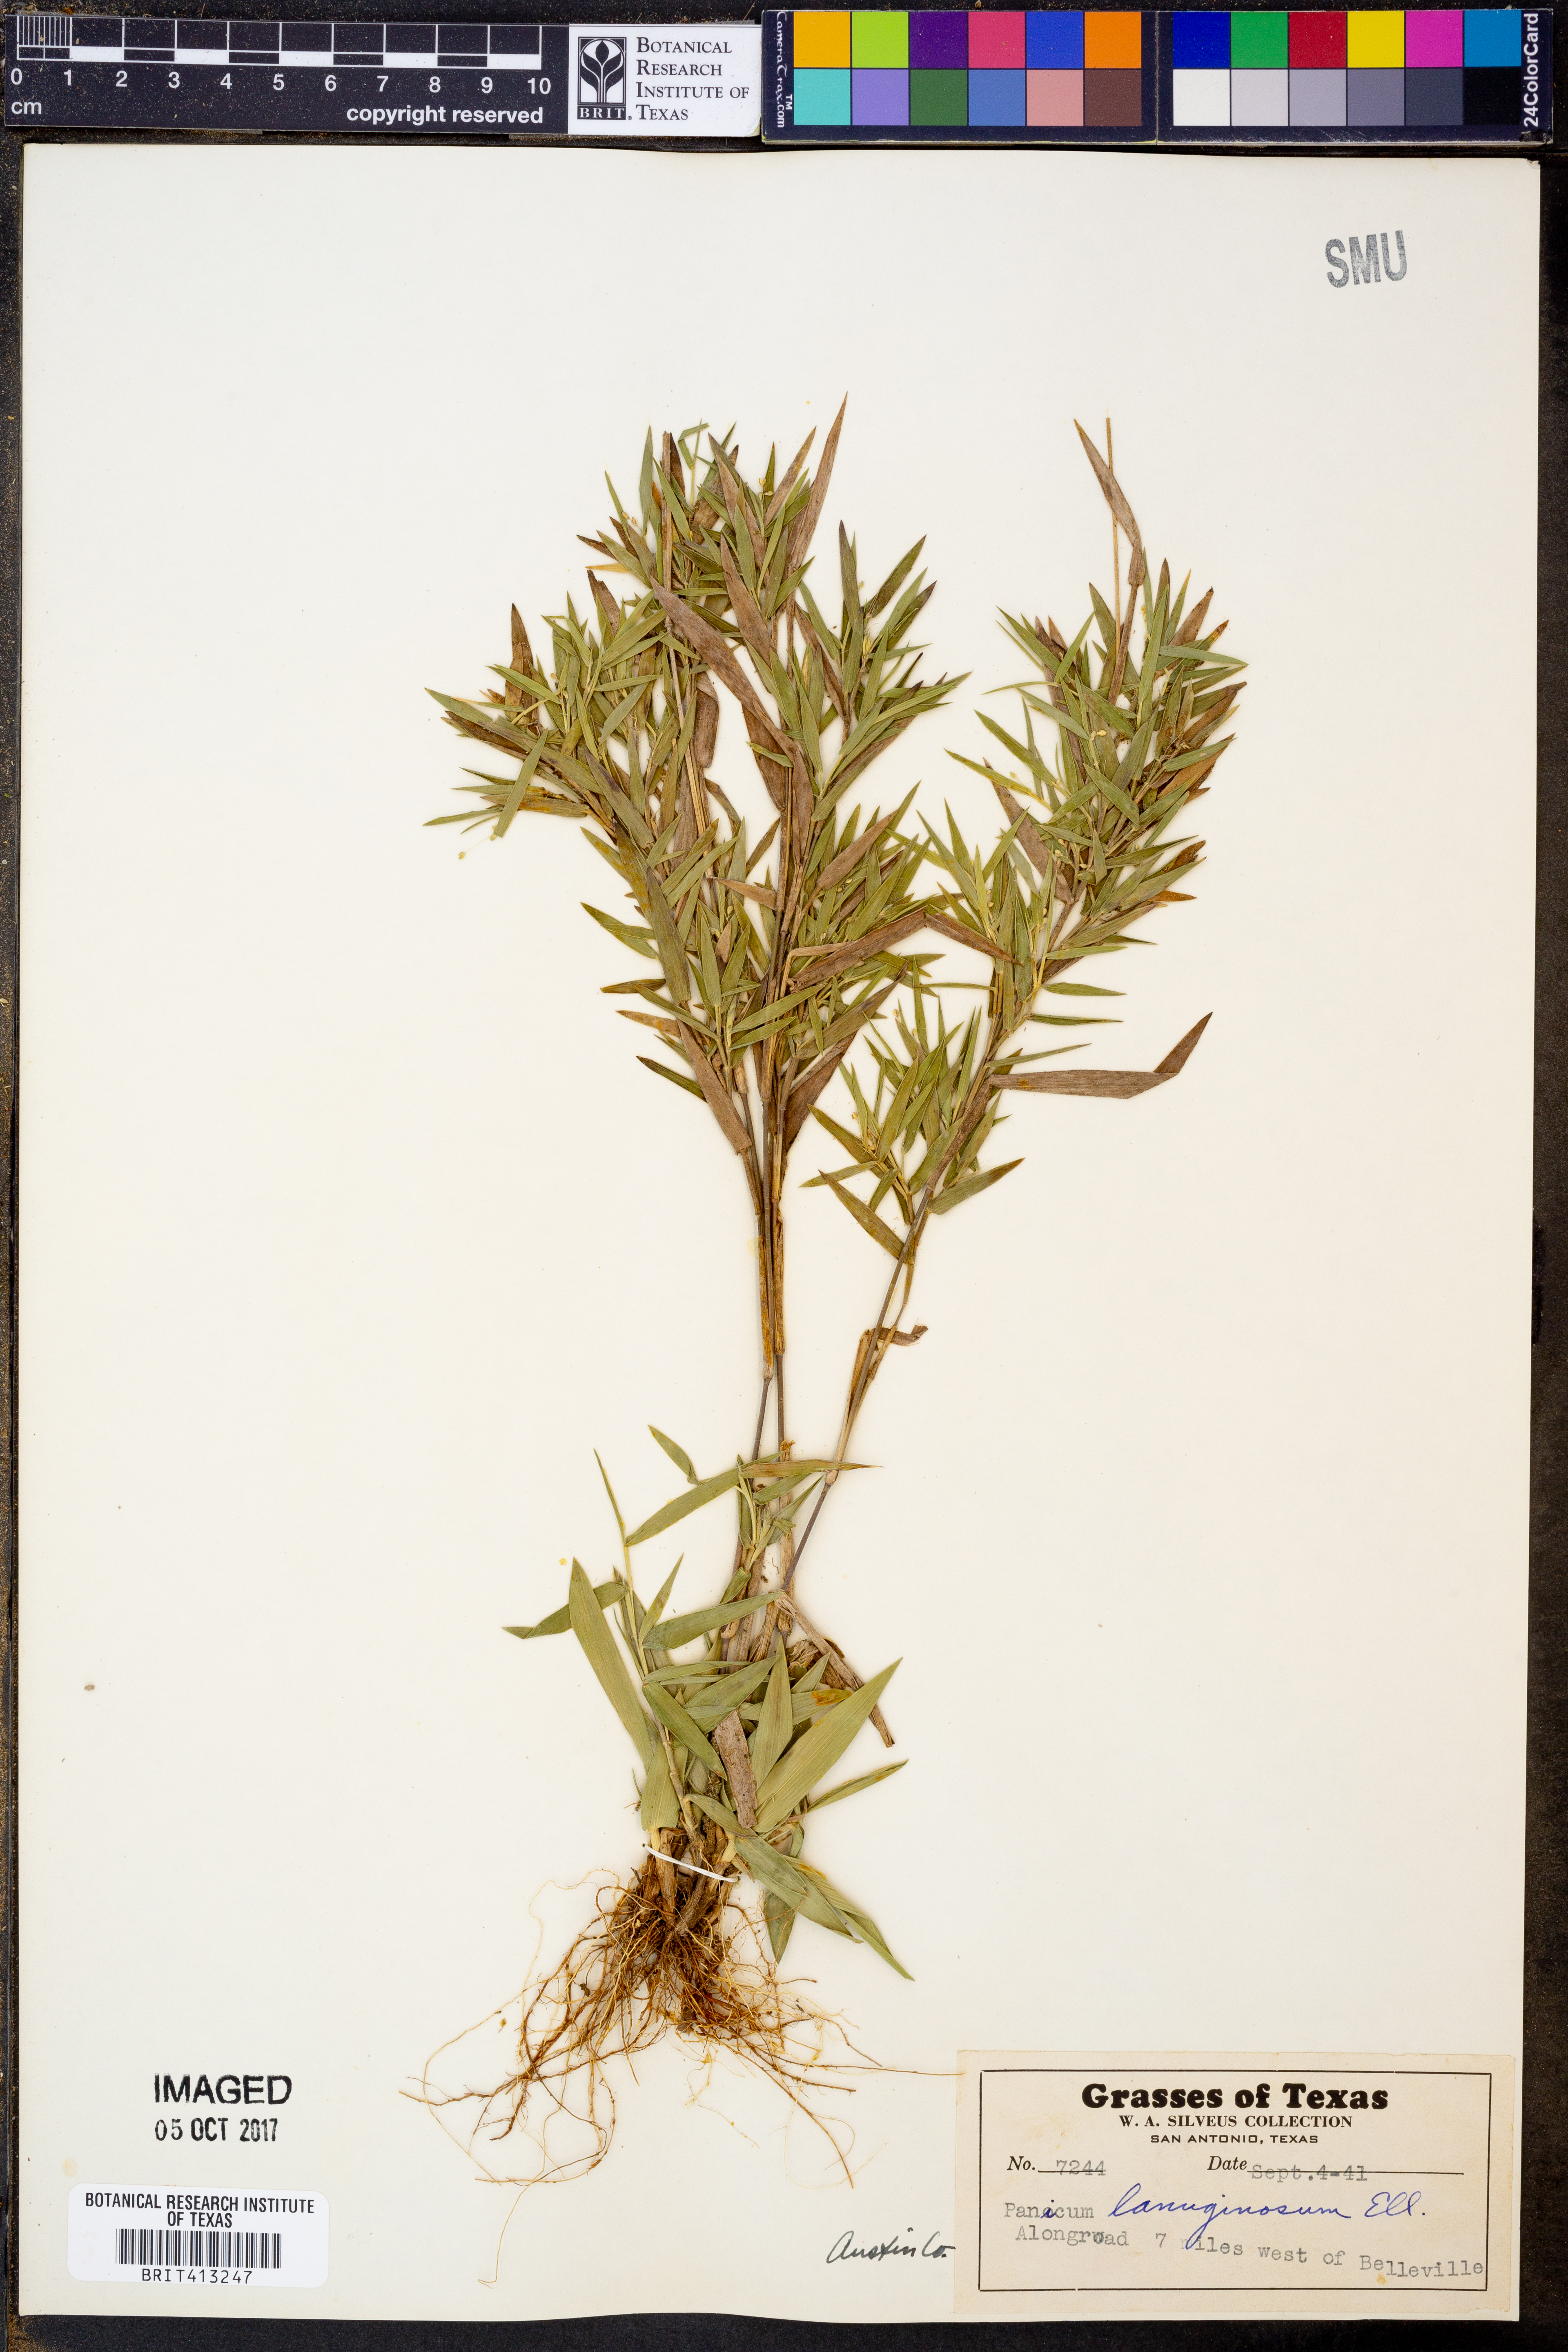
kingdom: Plantae
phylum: Tracheophyta
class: Liliopsida
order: Poales
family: Poaceae
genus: Dichanthelium
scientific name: Dichanthelium lanuginosum
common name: Woolly panicgrass
